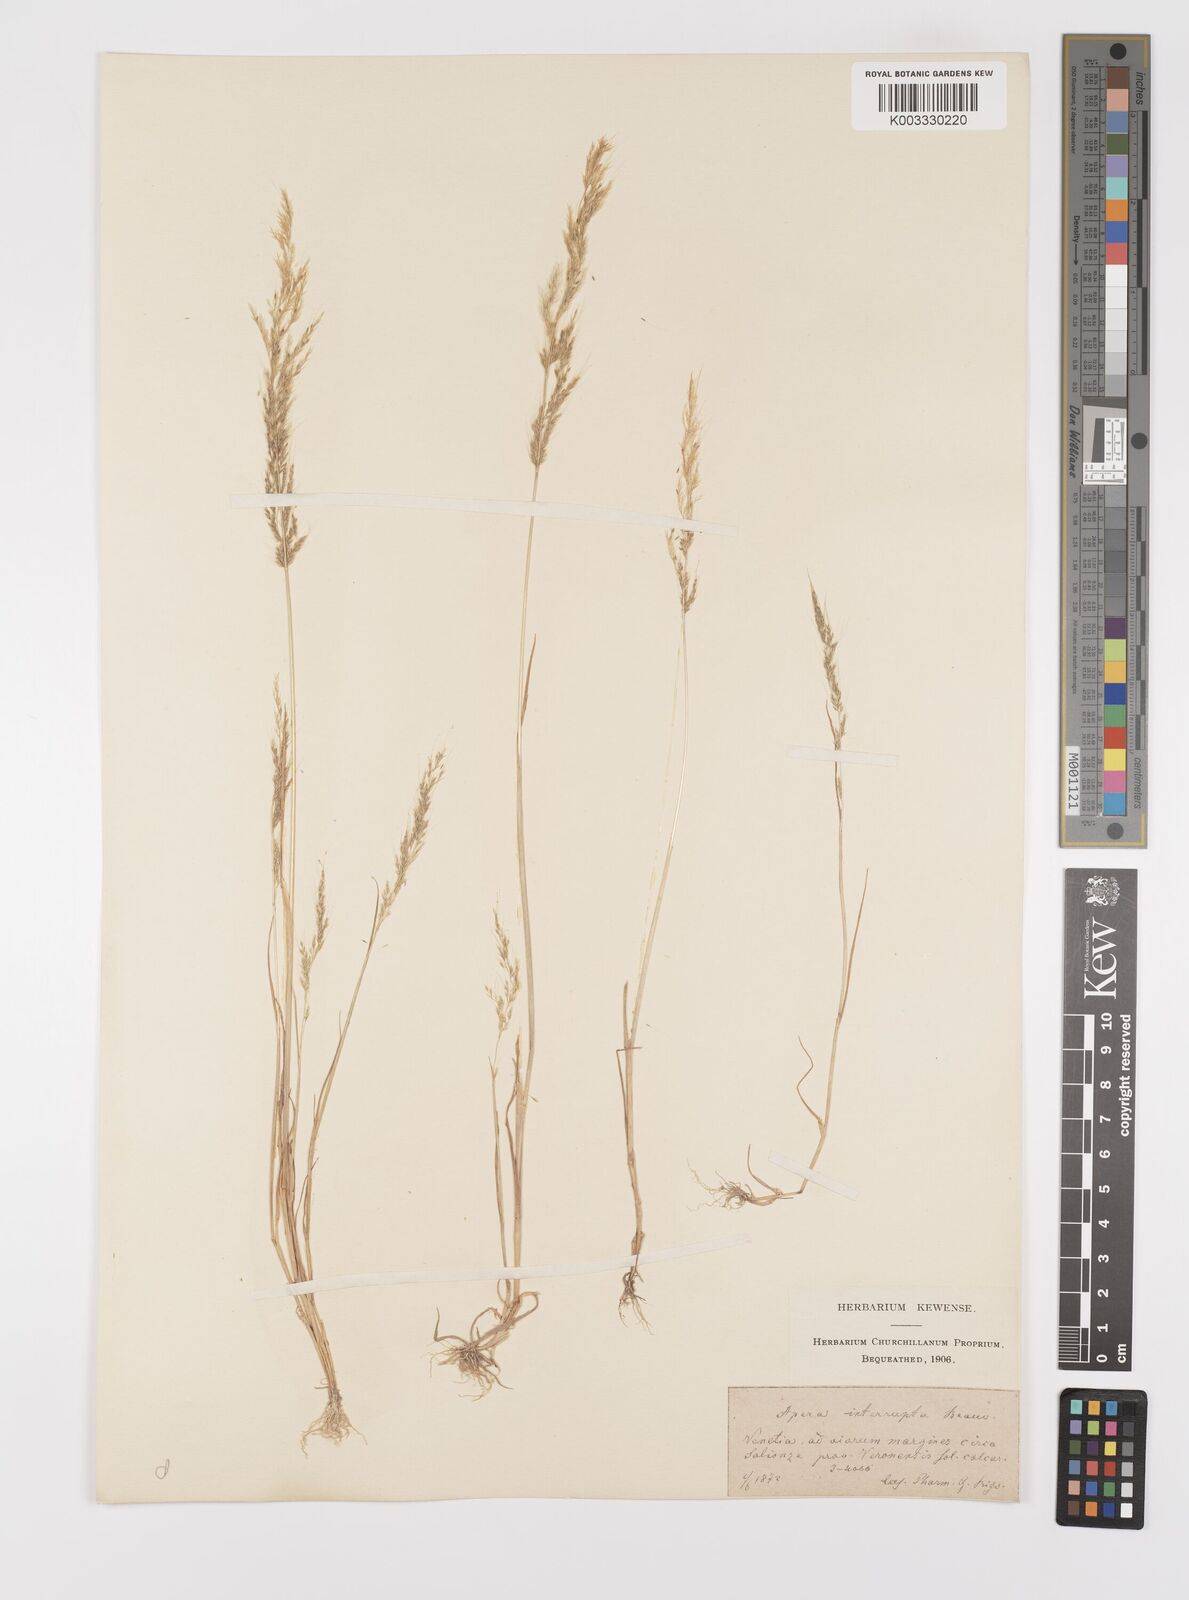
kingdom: Plantae
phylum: Tracheophyta
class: Liliopsida
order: Poales
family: Poaceae
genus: Apera
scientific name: Apera interrupta
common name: Dense silky-bent
